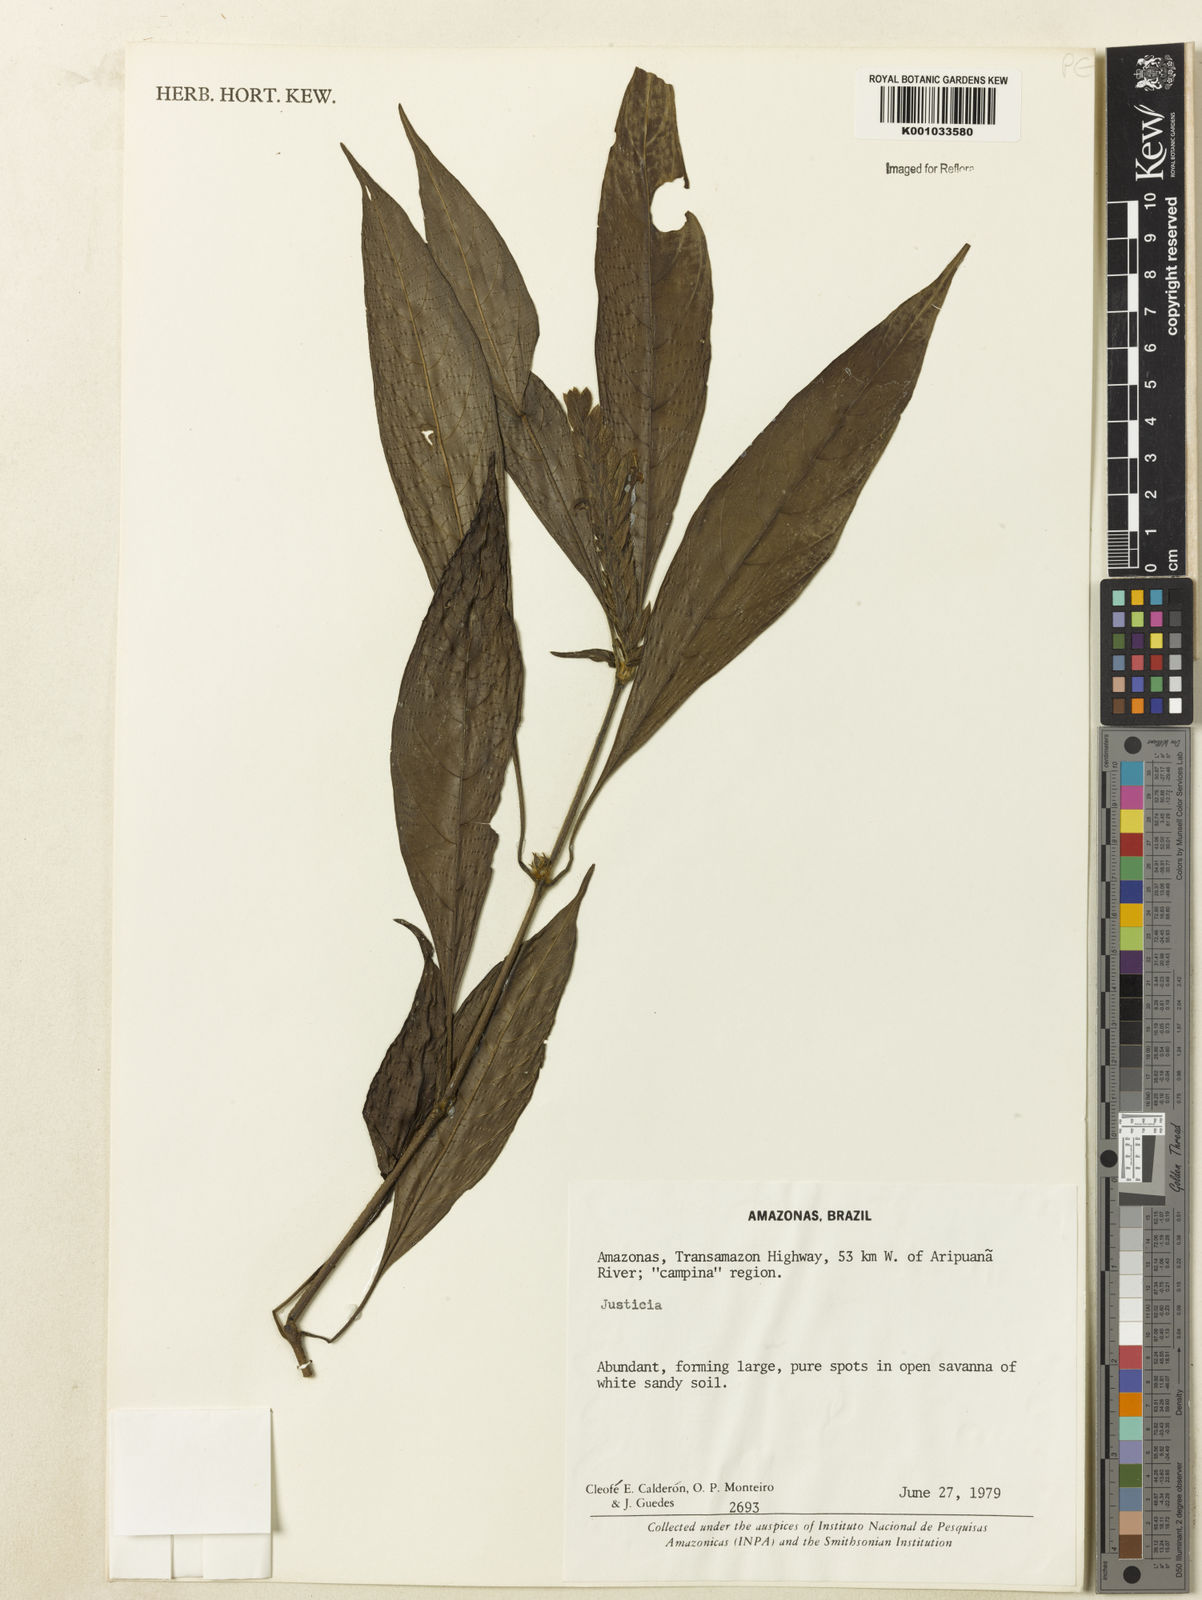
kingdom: Plantae
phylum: Tracheophyta
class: Magnoliopsida
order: Lamiales
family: Acanthaceae
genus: Justicia
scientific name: Justicia
